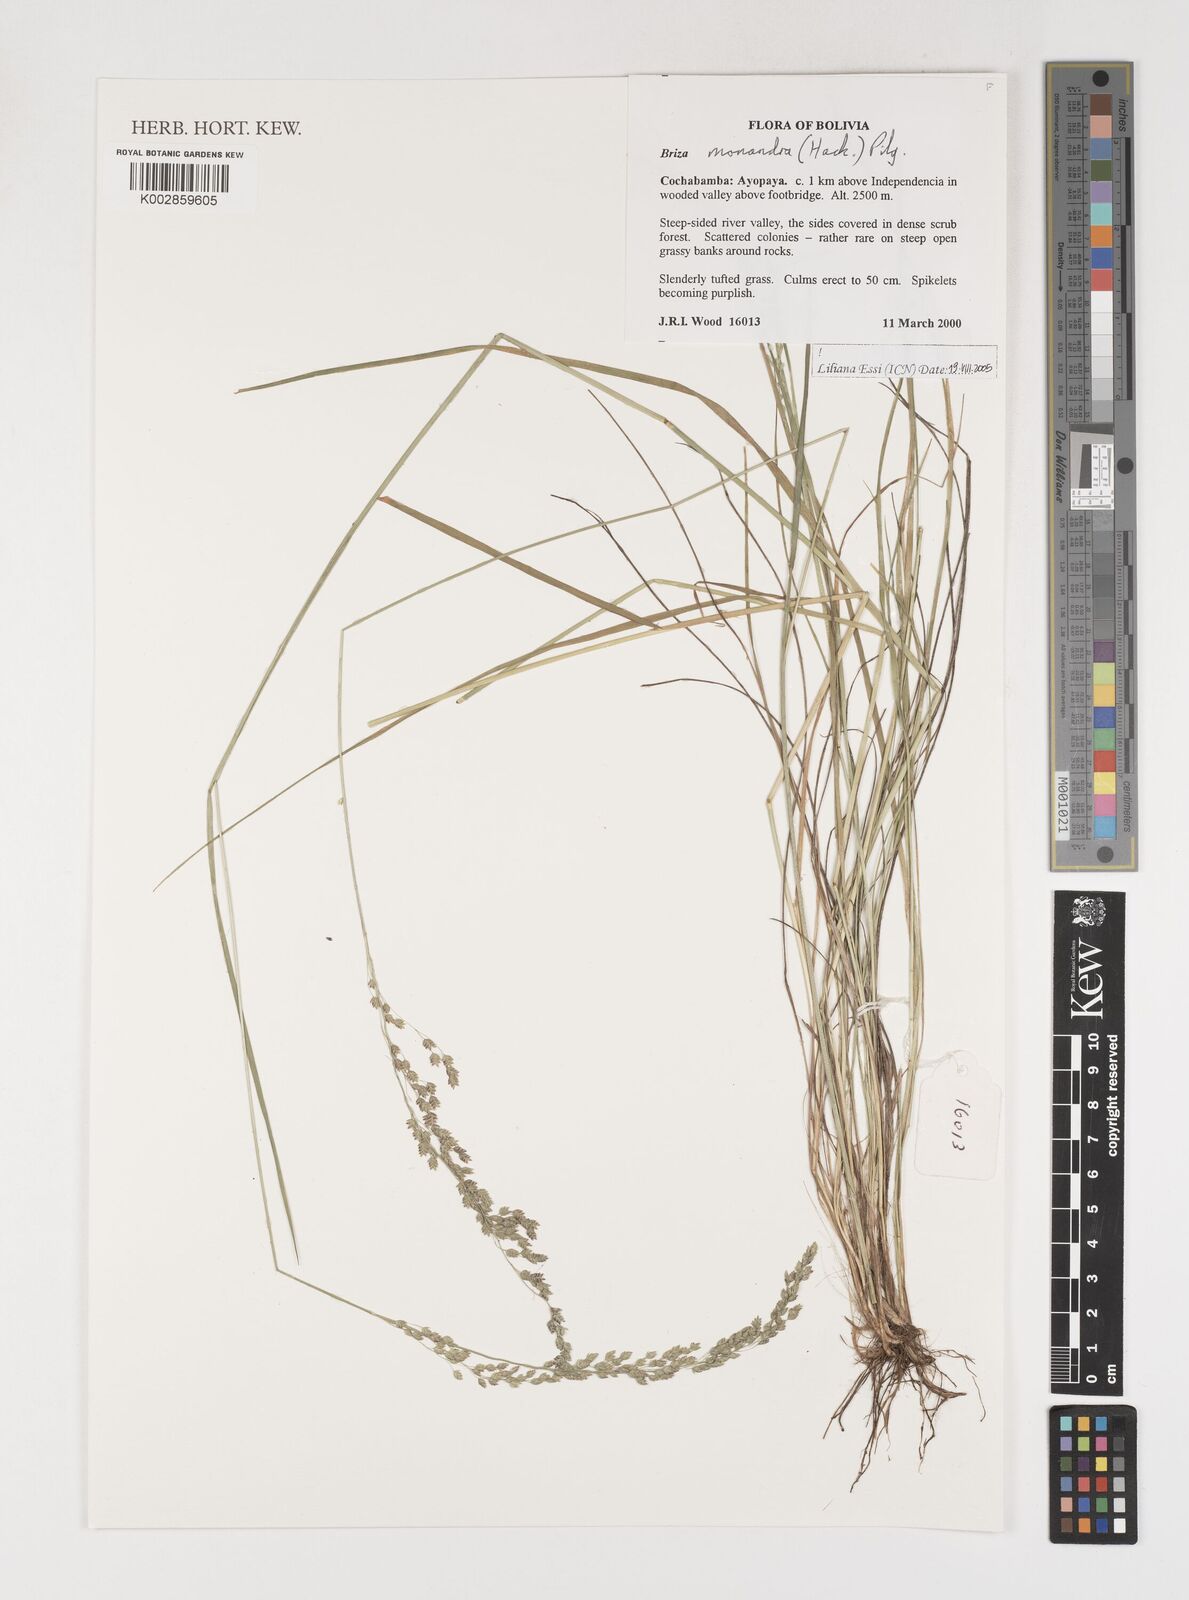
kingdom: Plantae
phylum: Tracheophyta
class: Liliopsida
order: Poales
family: Poaceae
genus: Poidium
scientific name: Poidium monandrum
